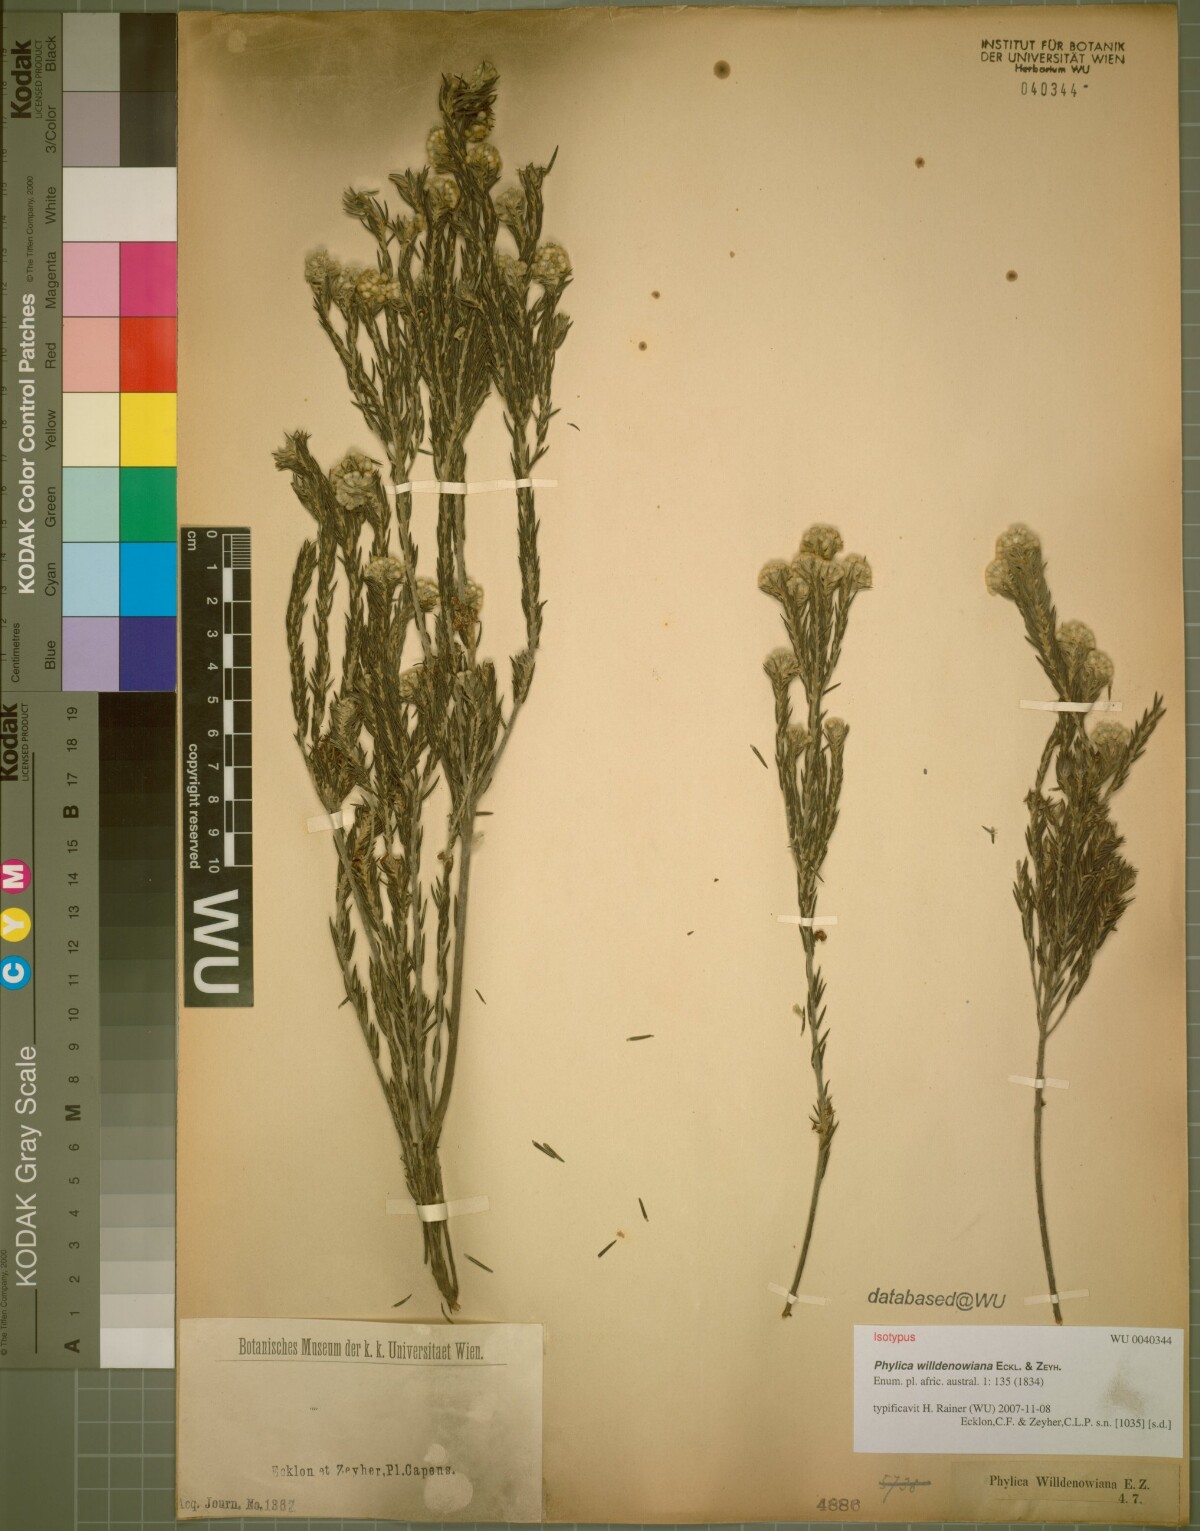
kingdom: Plantae
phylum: Tracheophyta
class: Magnoliopsida
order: Rosales
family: Rhamnaceae
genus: Phylica
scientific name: Phylica willdenowiana
